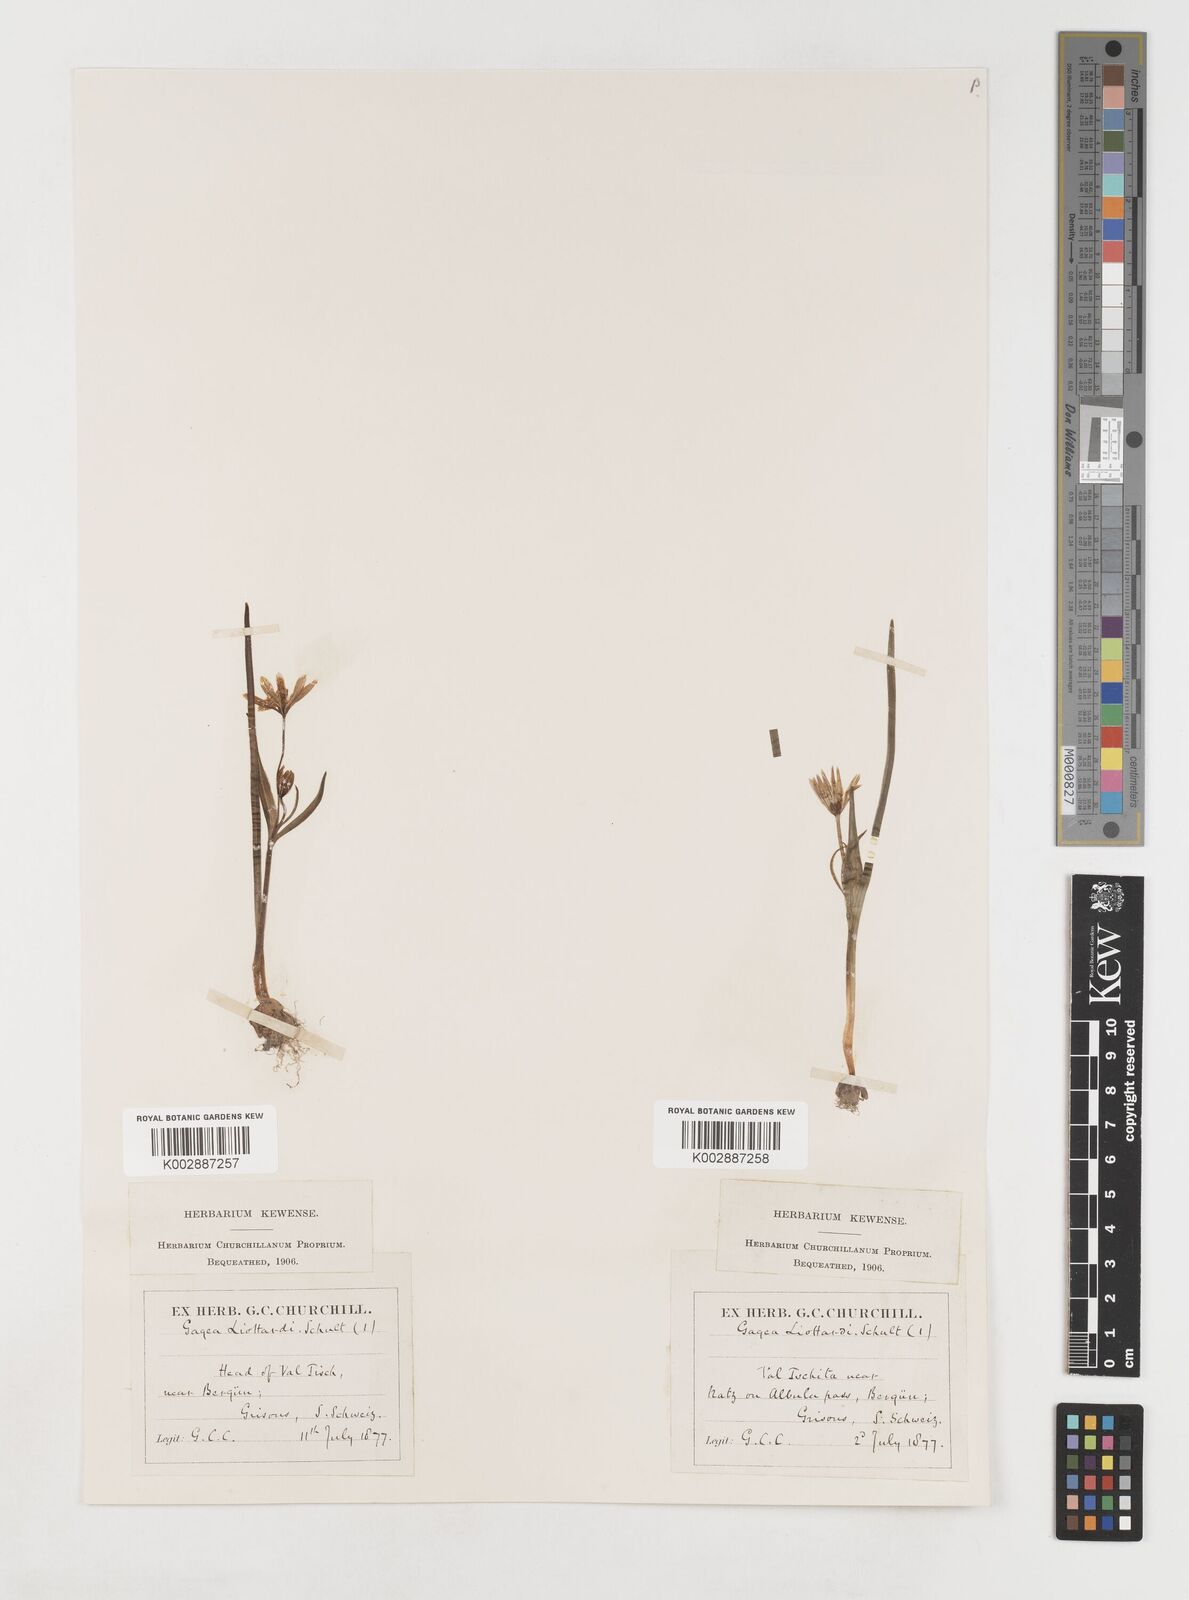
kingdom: Plantae
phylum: Tracheophyta
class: Liliopsida
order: Liliales
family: Liliaceae
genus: Gagea
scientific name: Gagea bohemica
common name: Early star-of-bethlehem
